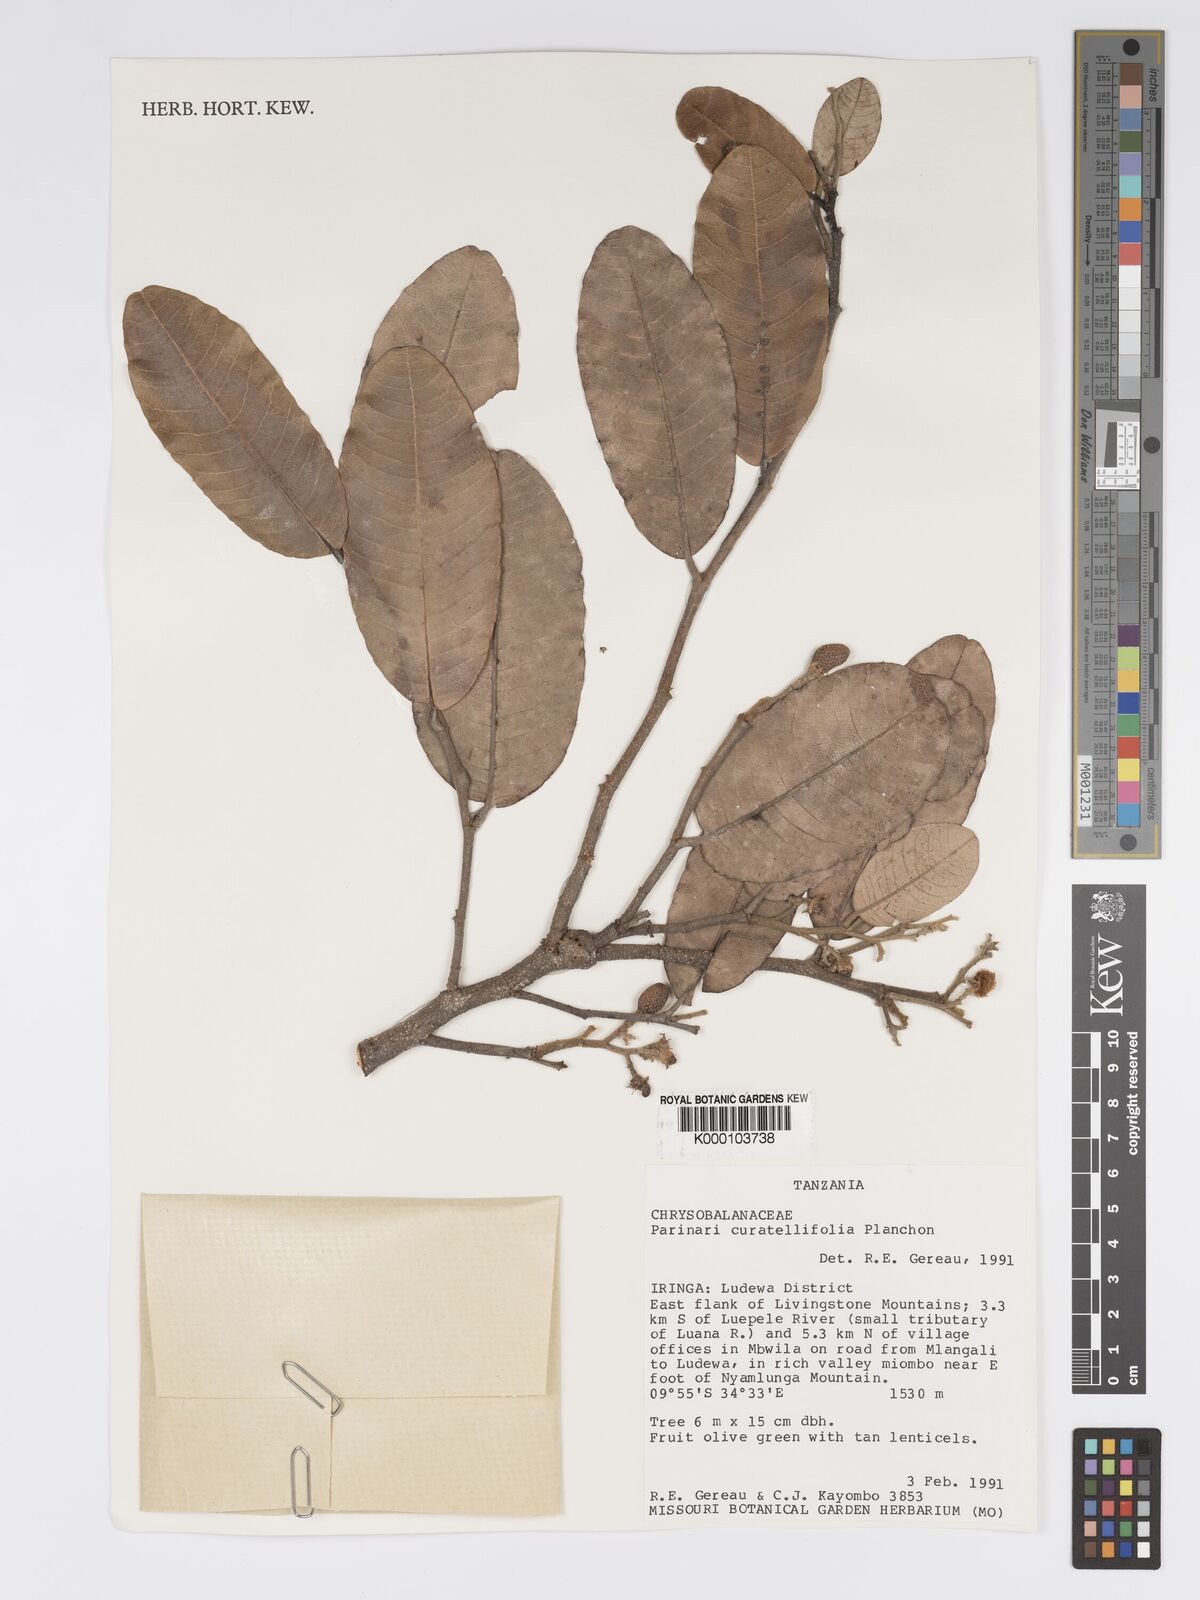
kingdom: Plantae
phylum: Tracheophyta
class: Magnoliopsida
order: Malpighiales
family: Chrysobalanaceae
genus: Parinari
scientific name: Parinari curatellifolia
